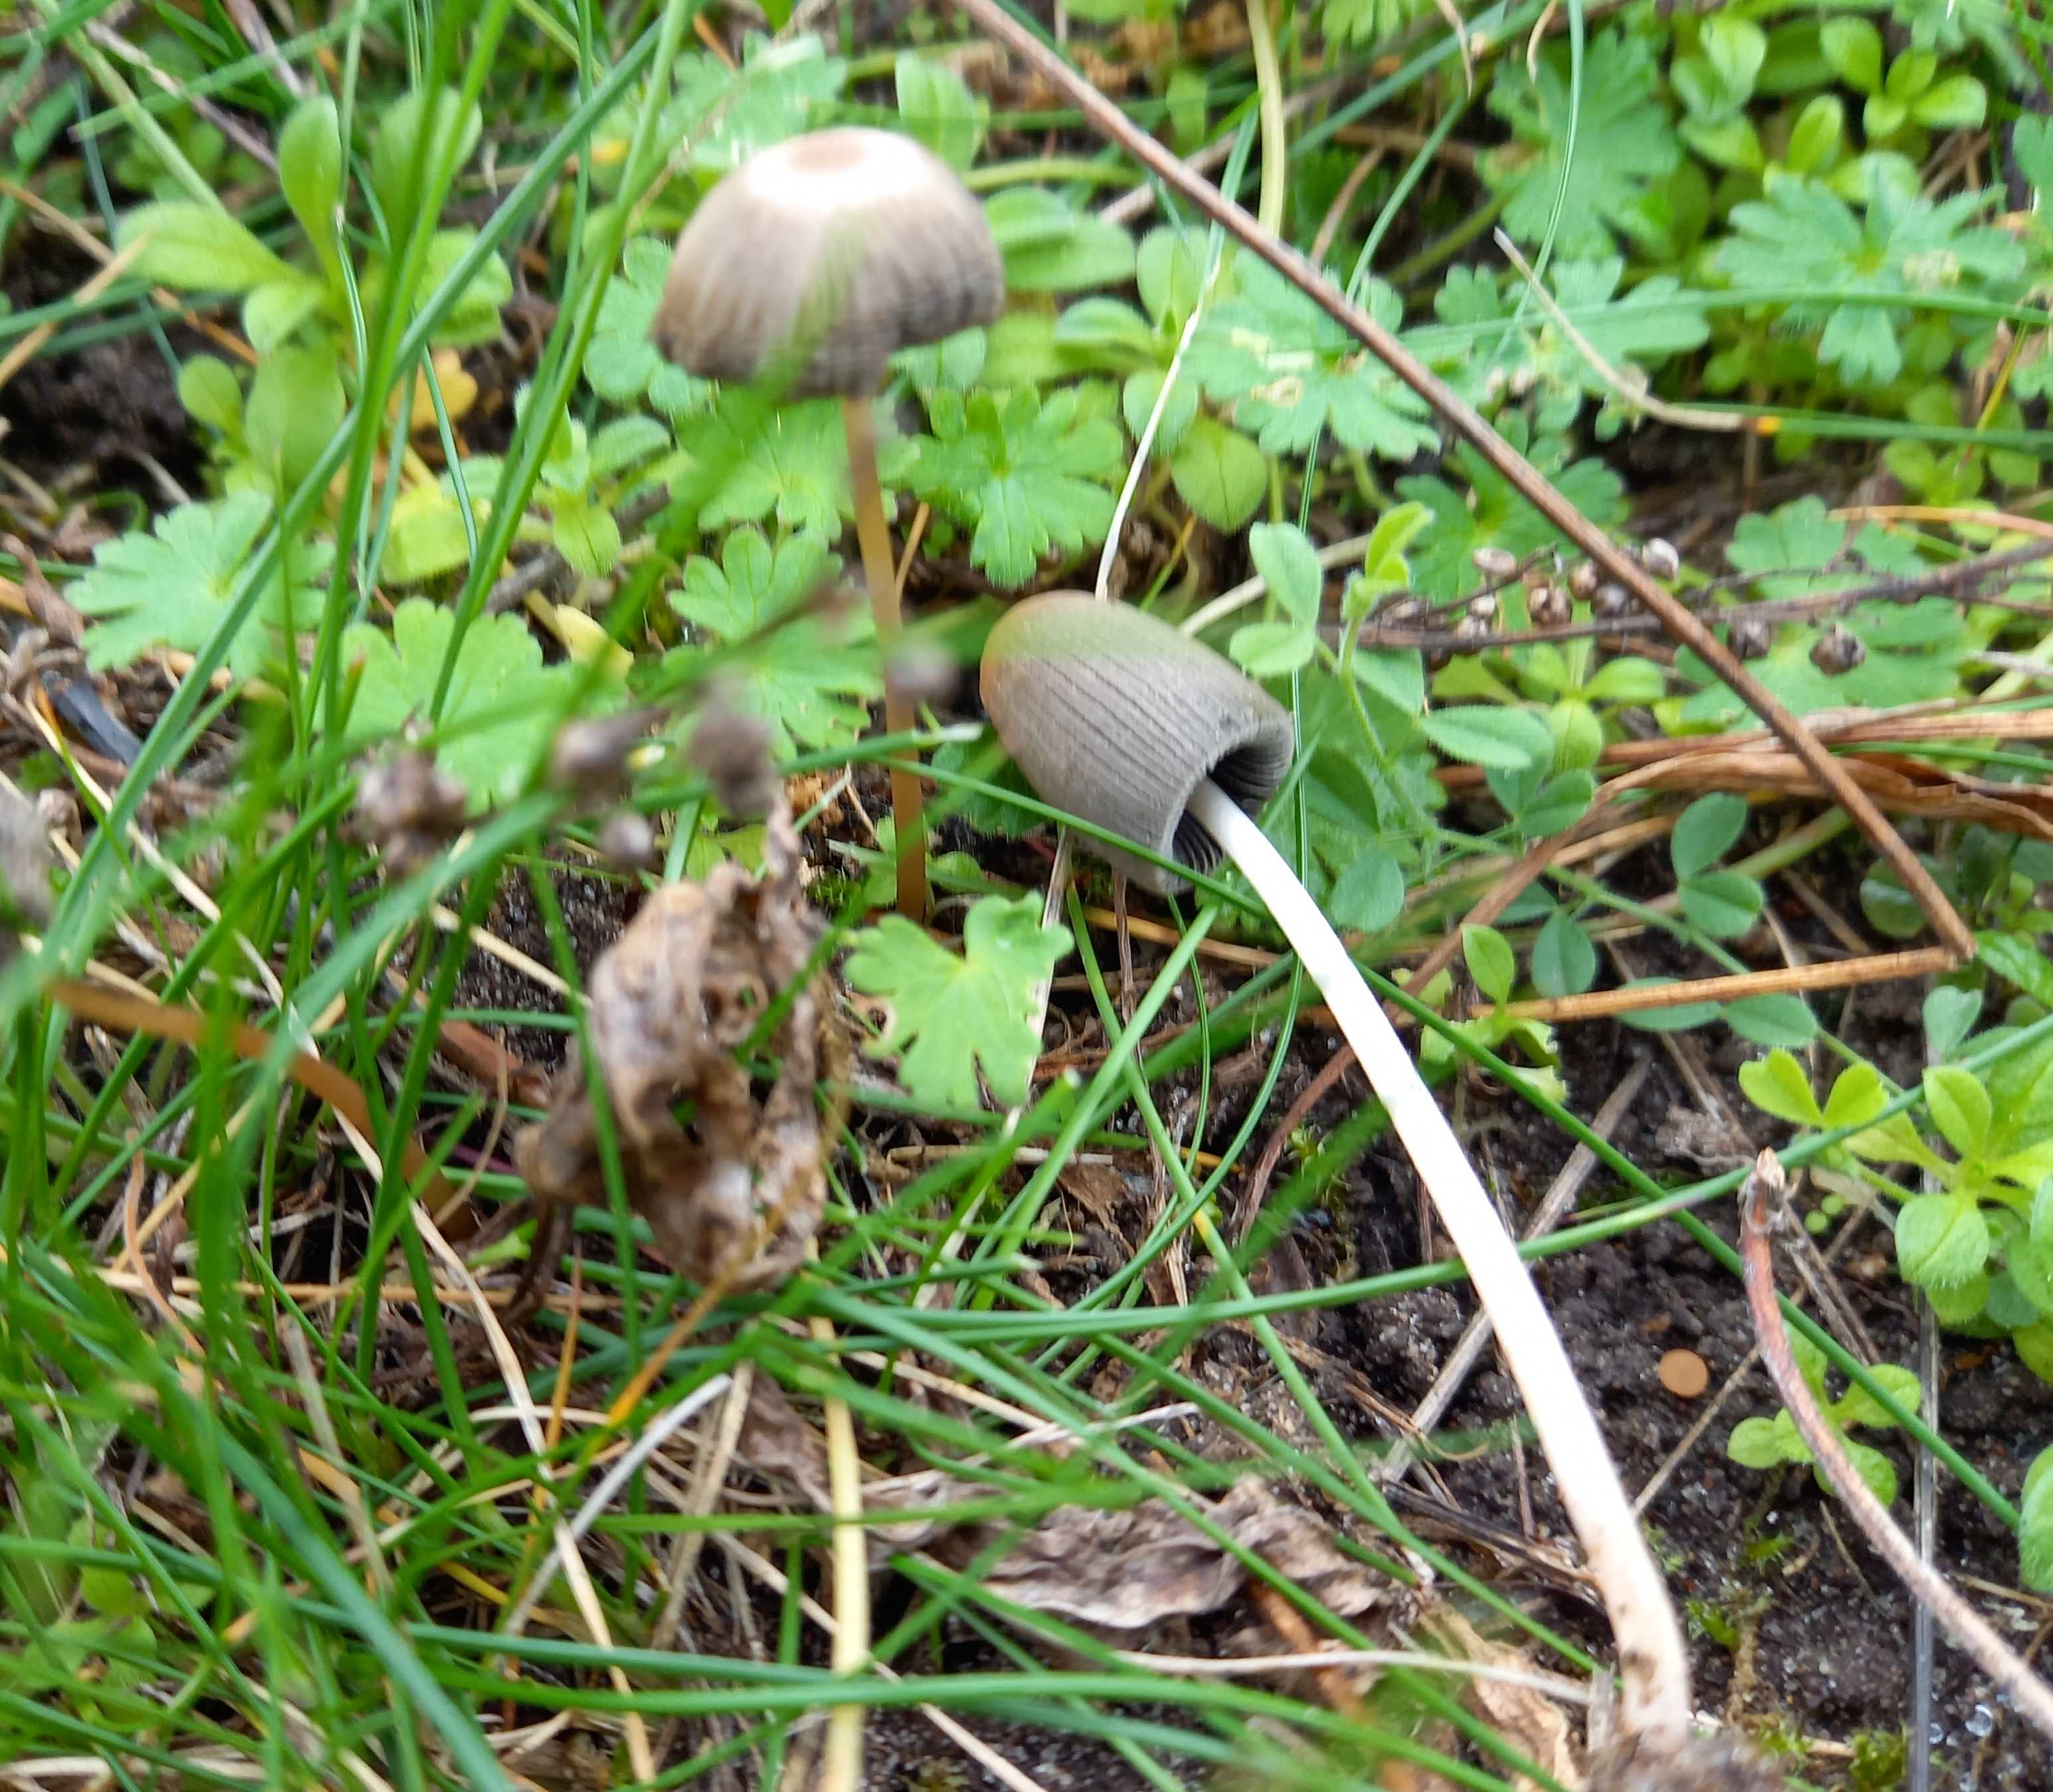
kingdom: Fungi
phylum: Basidiomycota
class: Agaricomycetes
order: Agaricales
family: Psathyrellaceae
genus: Parasola
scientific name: Parasola
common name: hjulhat
